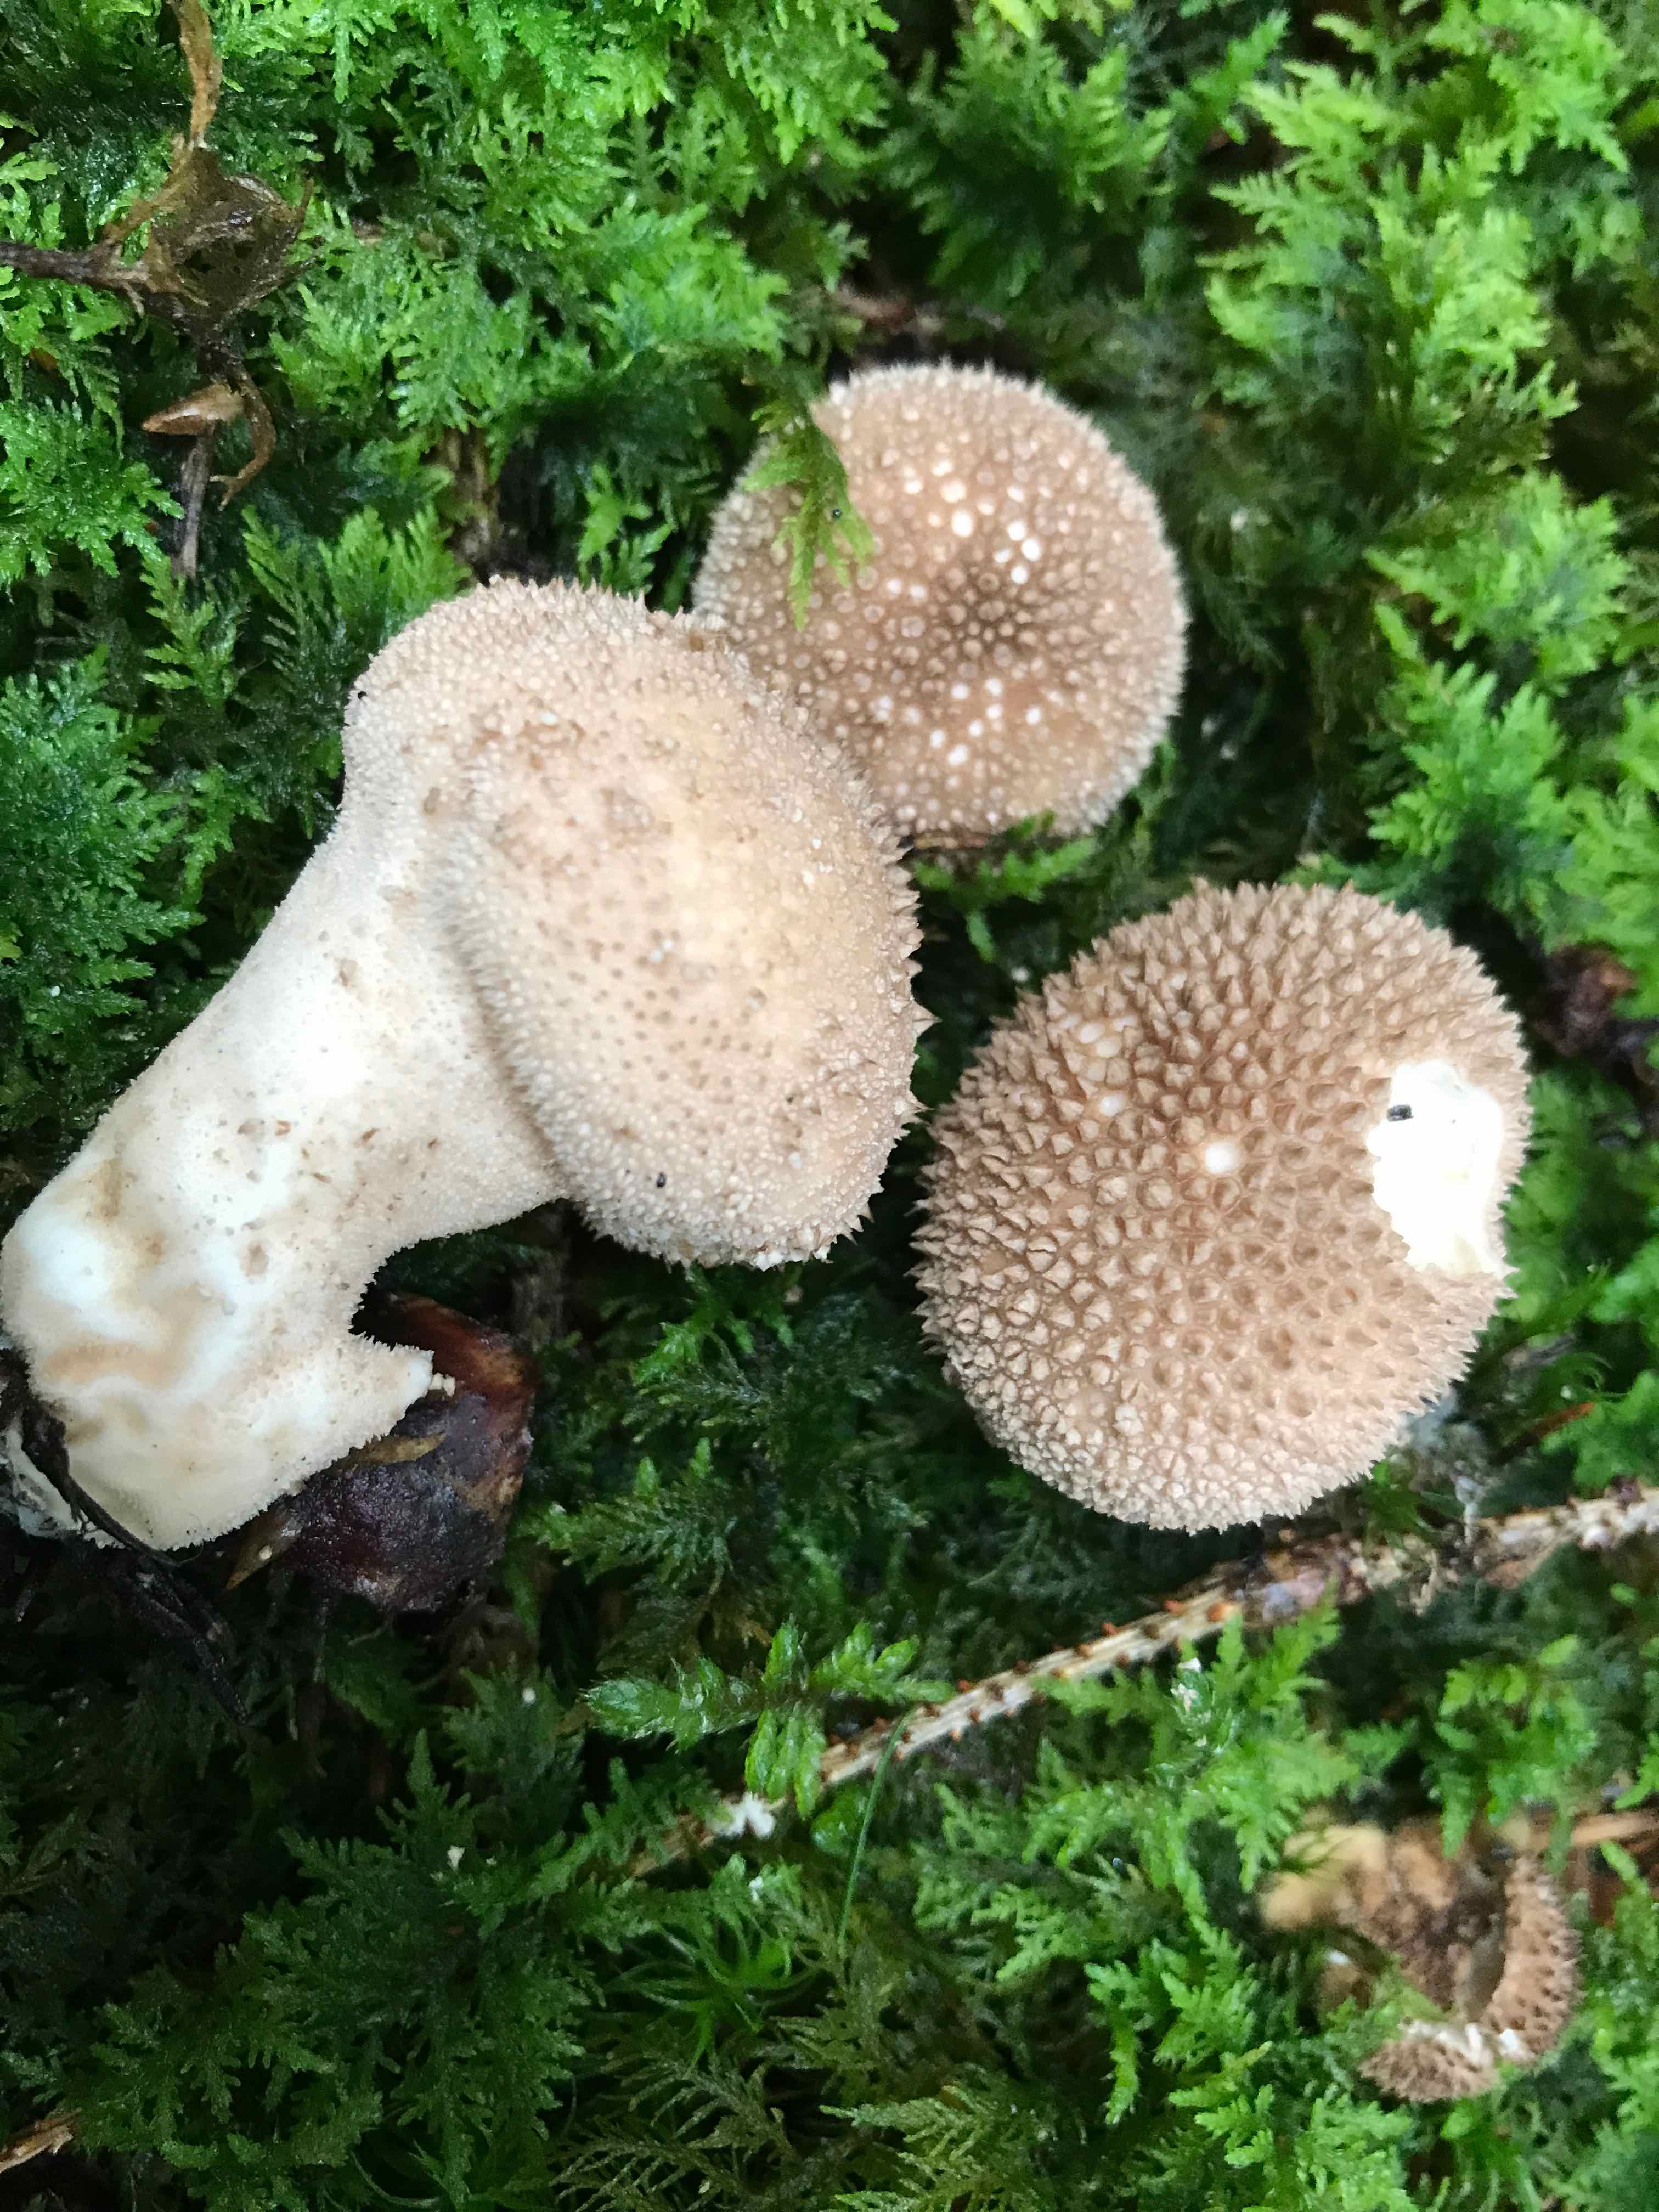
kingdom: Fungi
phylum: Basidiomycota
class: Agaricomycetes
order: Agaricales
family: Lycoperdaceae
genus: Lycoperdon
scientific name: Lycoperdon perlatum
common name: krystal-støvbold
